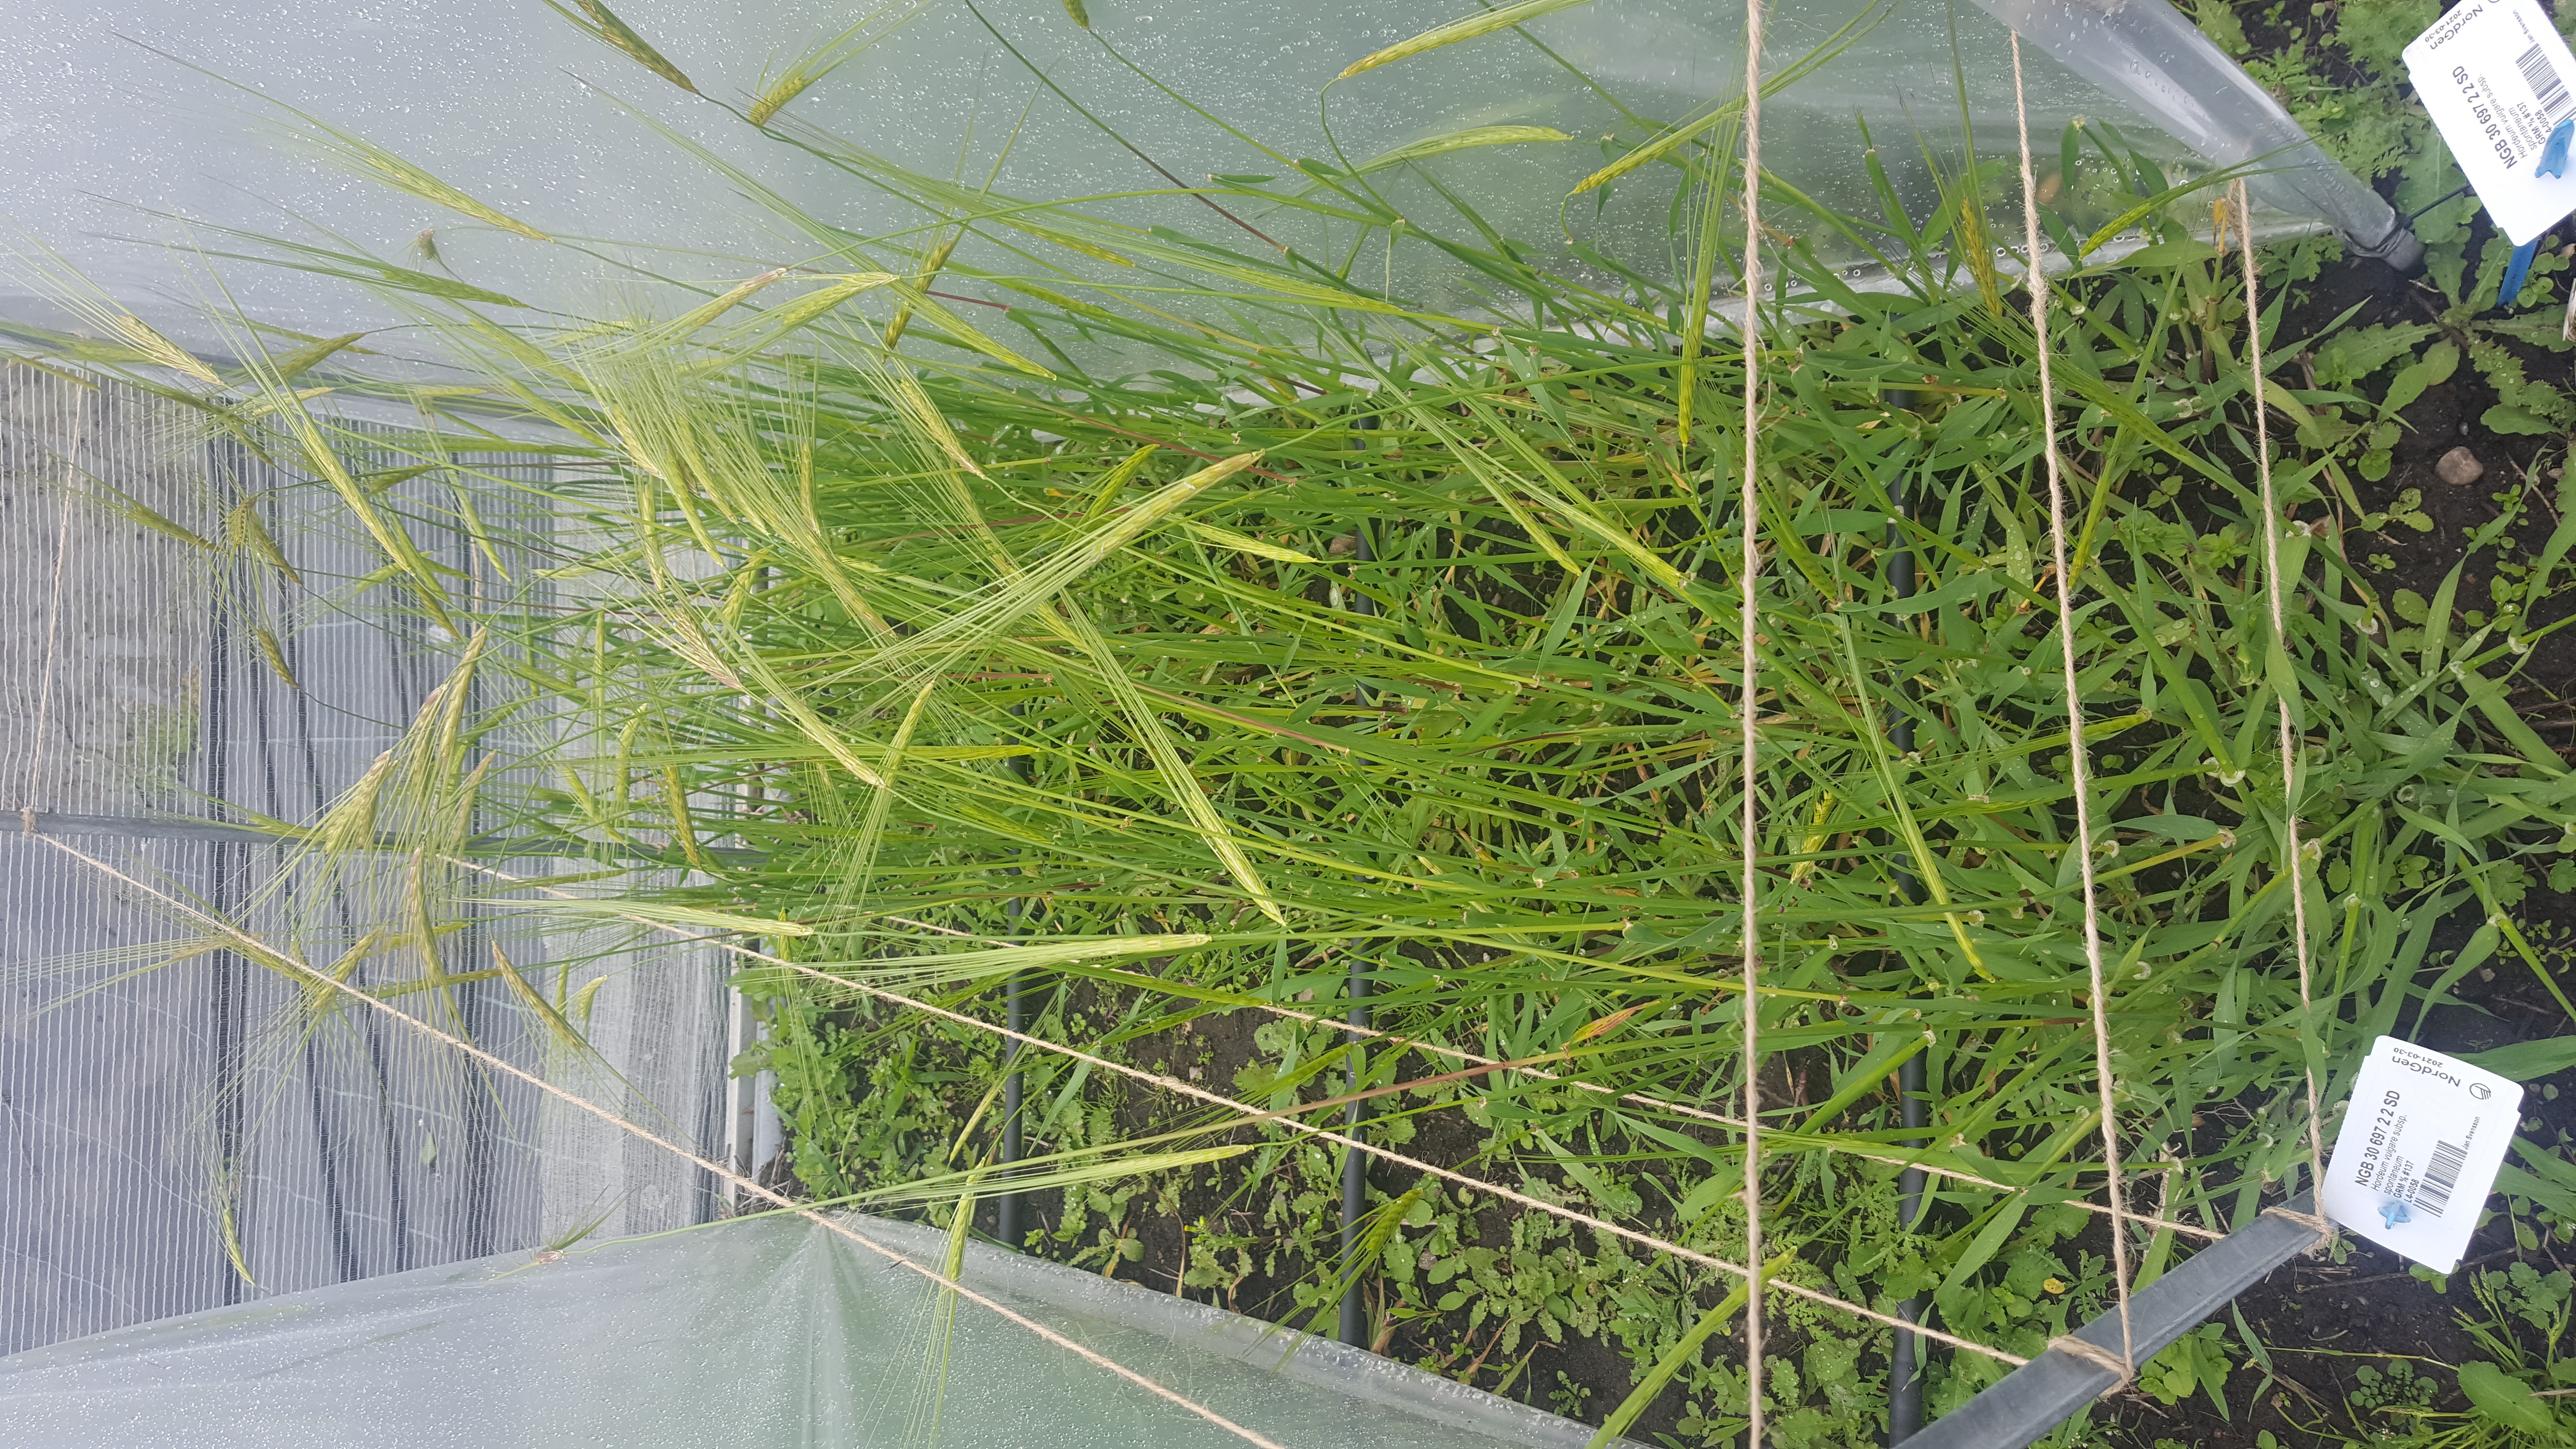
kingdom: Plantae
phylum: Tracheophyta
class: Liliopsida
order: Poales
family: Poaceae
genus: Hordeum
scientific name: Hordeum spontaneum
